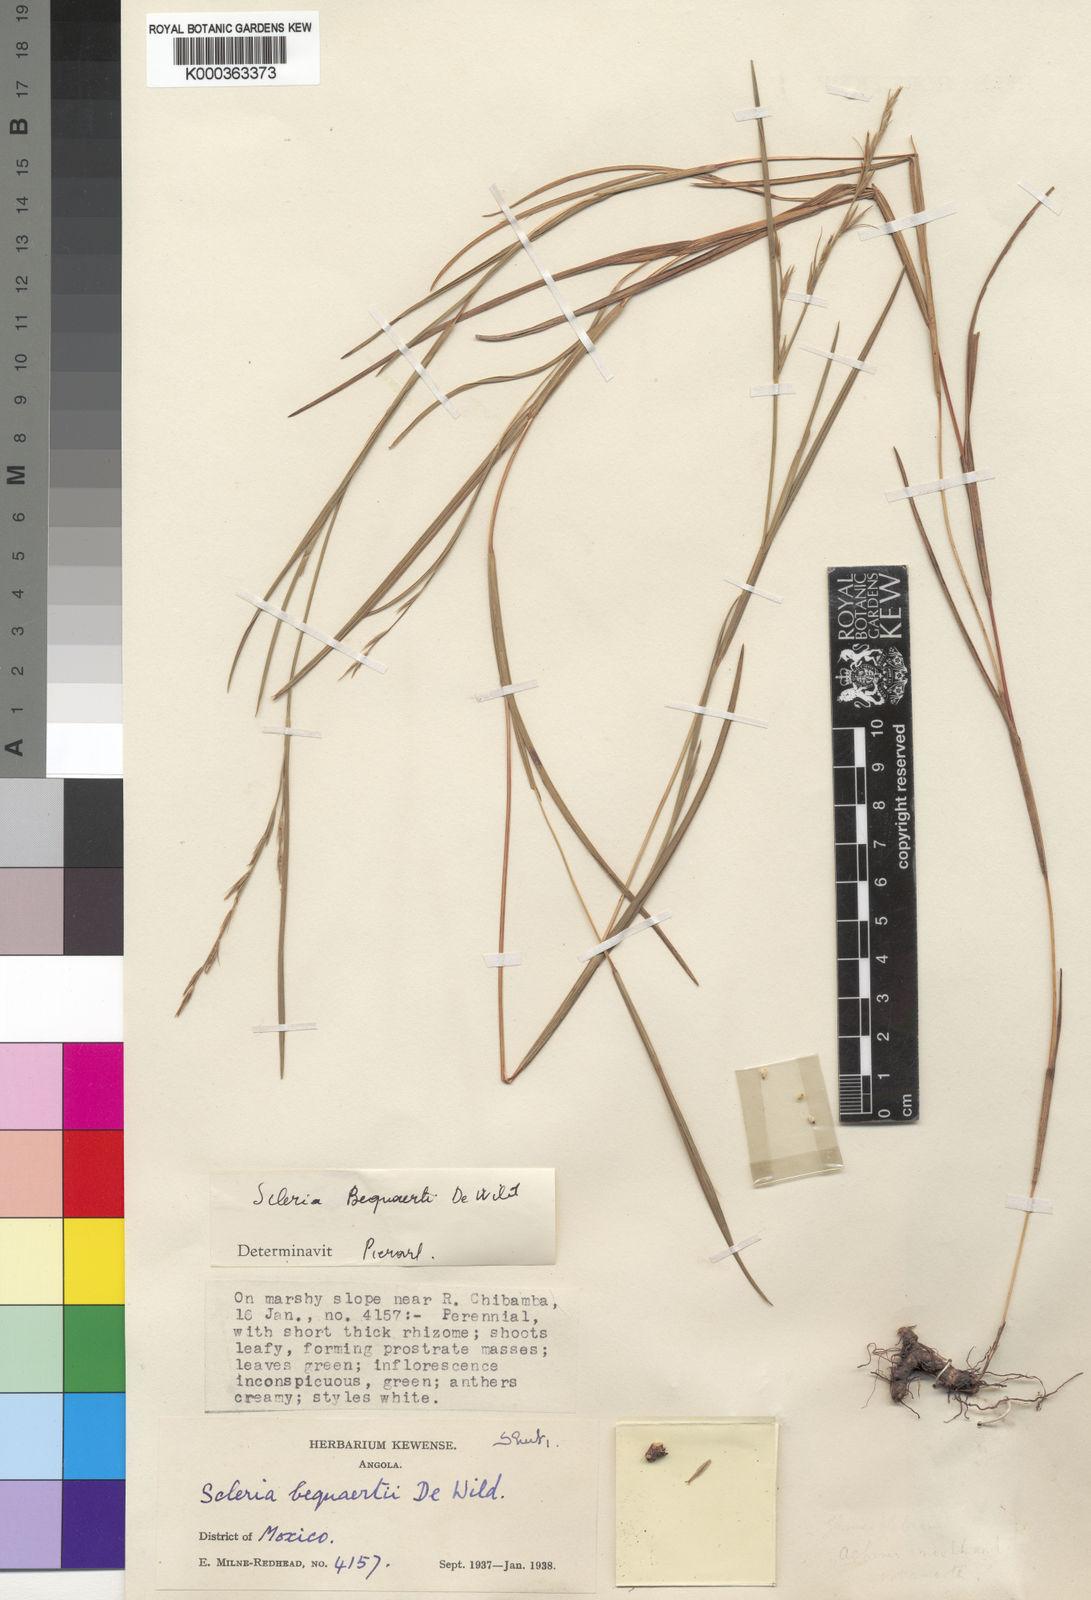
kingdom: Plantae
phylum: Tracheophyta
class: Liliopsida
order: Poales
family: Cyperaceae
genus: Scleria
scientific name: Scleria bequaertii
